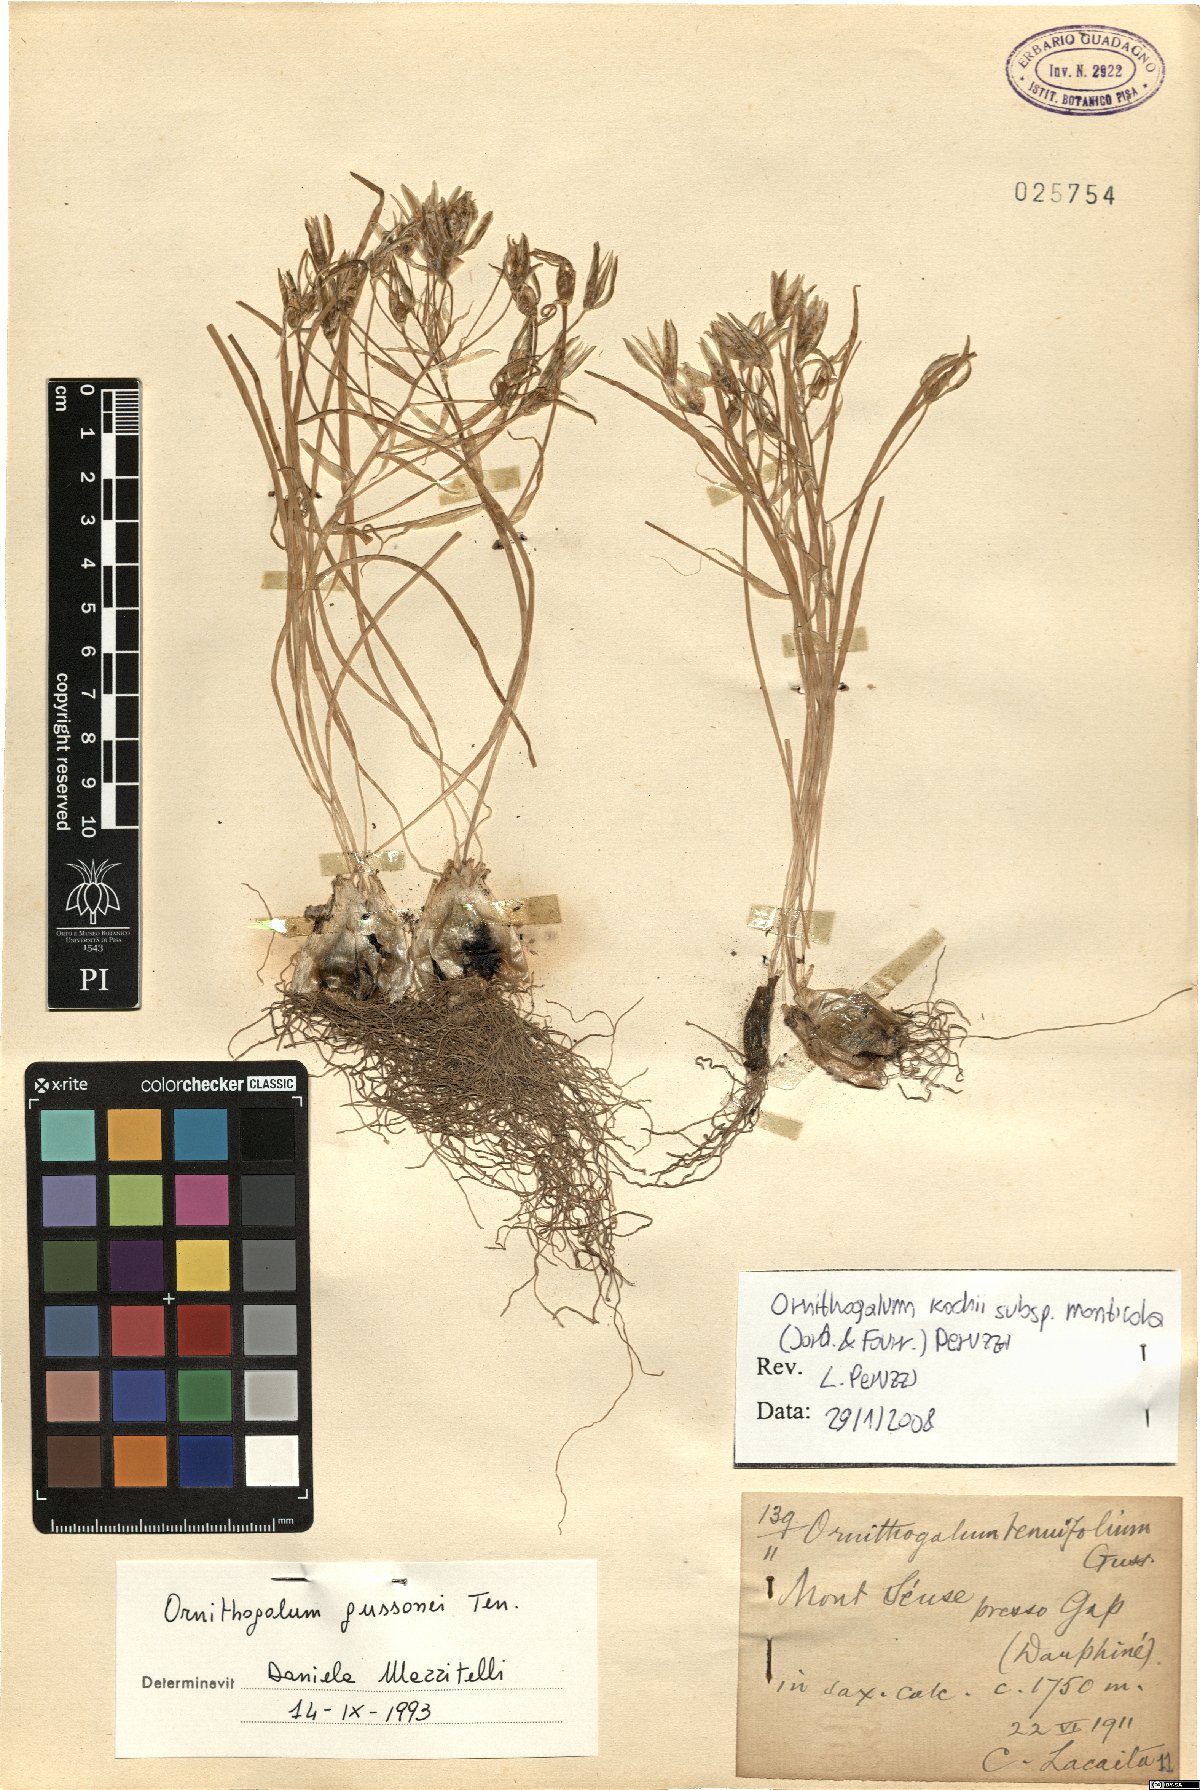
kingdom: Plantae
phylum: Tracheophyta
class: Liliopsida
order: Asparagales
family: Asparagaceae
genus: Ornithogalum
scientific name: Ornithogalum bourgaeanum
